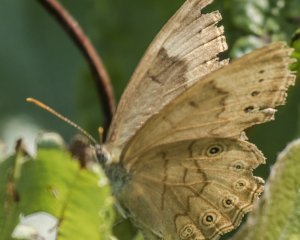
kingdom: Animalia
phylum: Arthropoda
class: Insecta
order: Lepidoptera
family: Nymphalidae
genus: Lethe
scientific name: Lethe eurydice
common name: Eyed Brown
